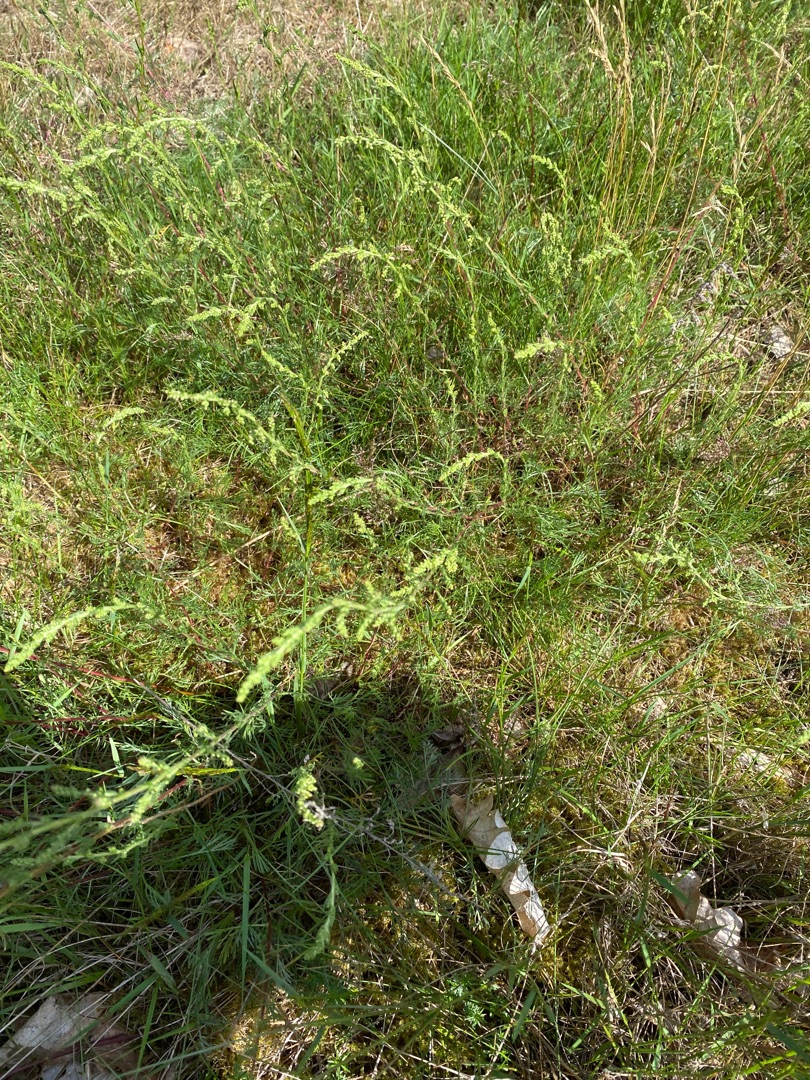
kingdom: Plantae
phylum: Tracheophyta
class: Magnoliopsida
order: Asterales
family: Asteraceae
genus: Artemisia
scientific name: Artemisia campestris
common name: Mark-bynke
